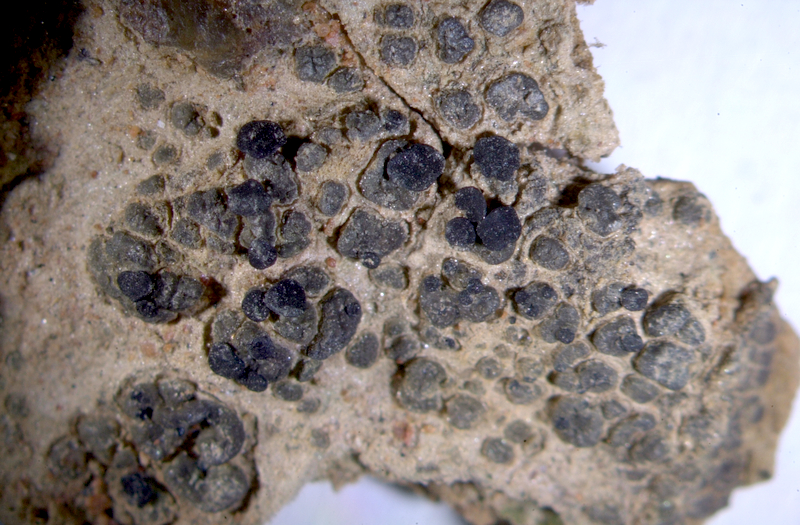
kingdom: Fungi
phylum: Ascomycota
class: Lecanoromycetes
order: Lecanorales
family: Ramalinaceae
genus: Bibbya
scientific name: Bibbya australis
